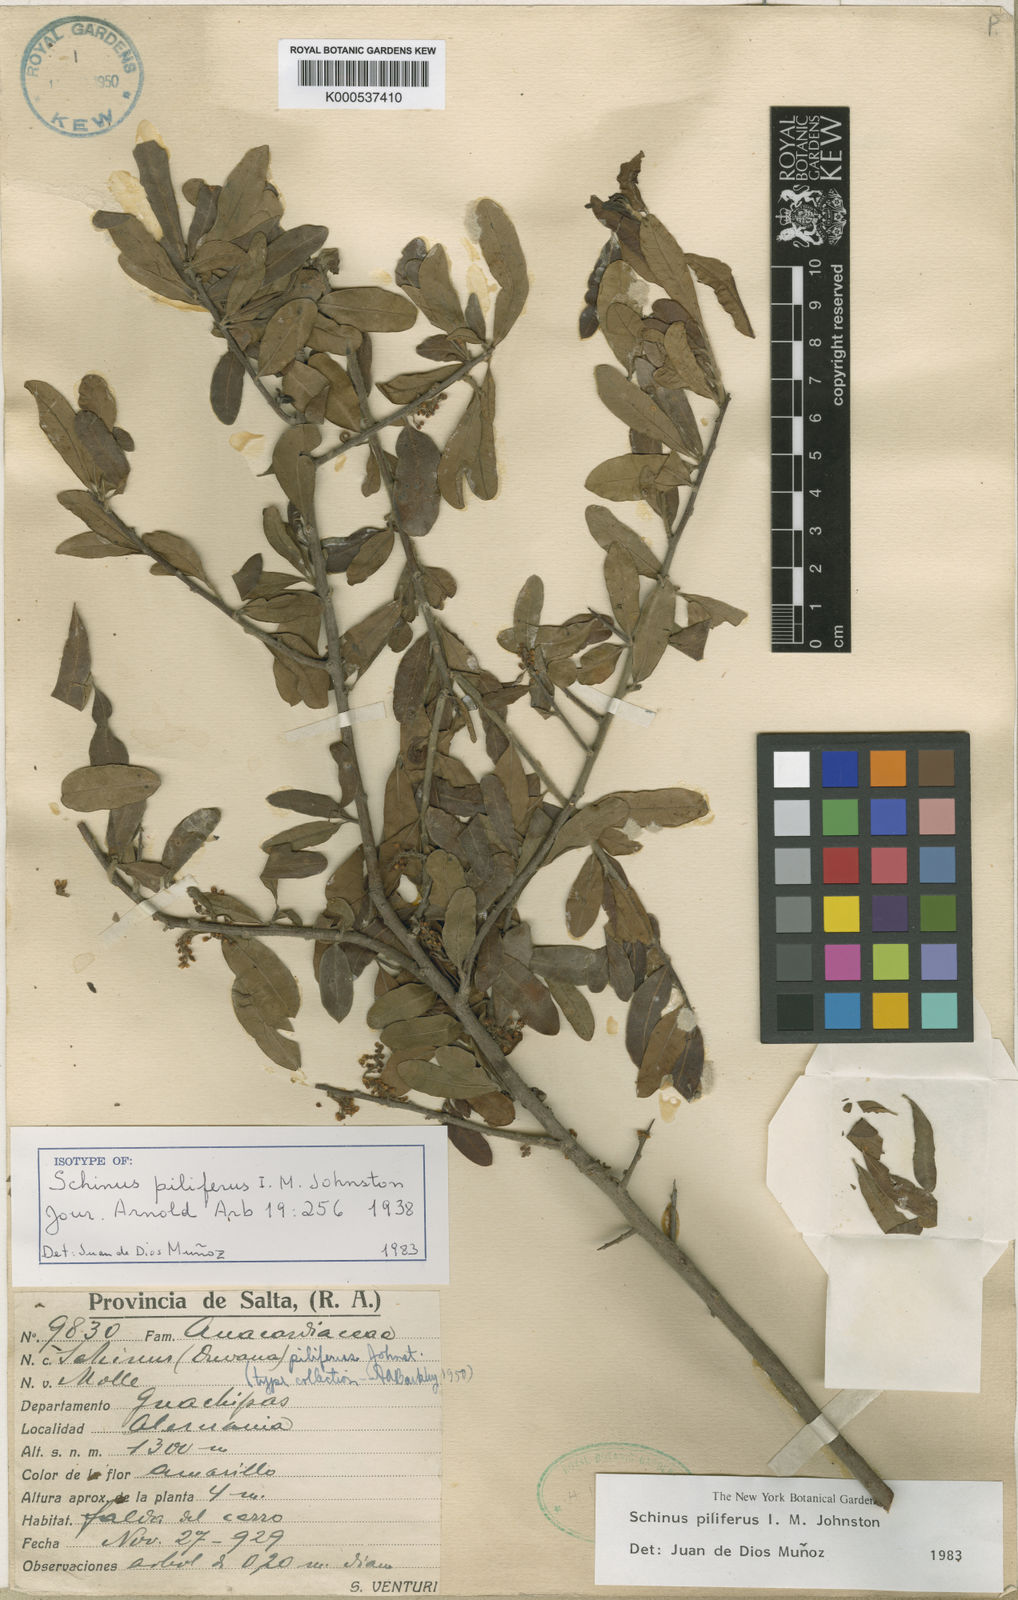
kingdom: Plantae
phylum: Tracheophyta
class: Magnoliopsida
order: Sapindales
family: Anacardiaceae
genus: Schinus
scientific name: Schinus pilifera
